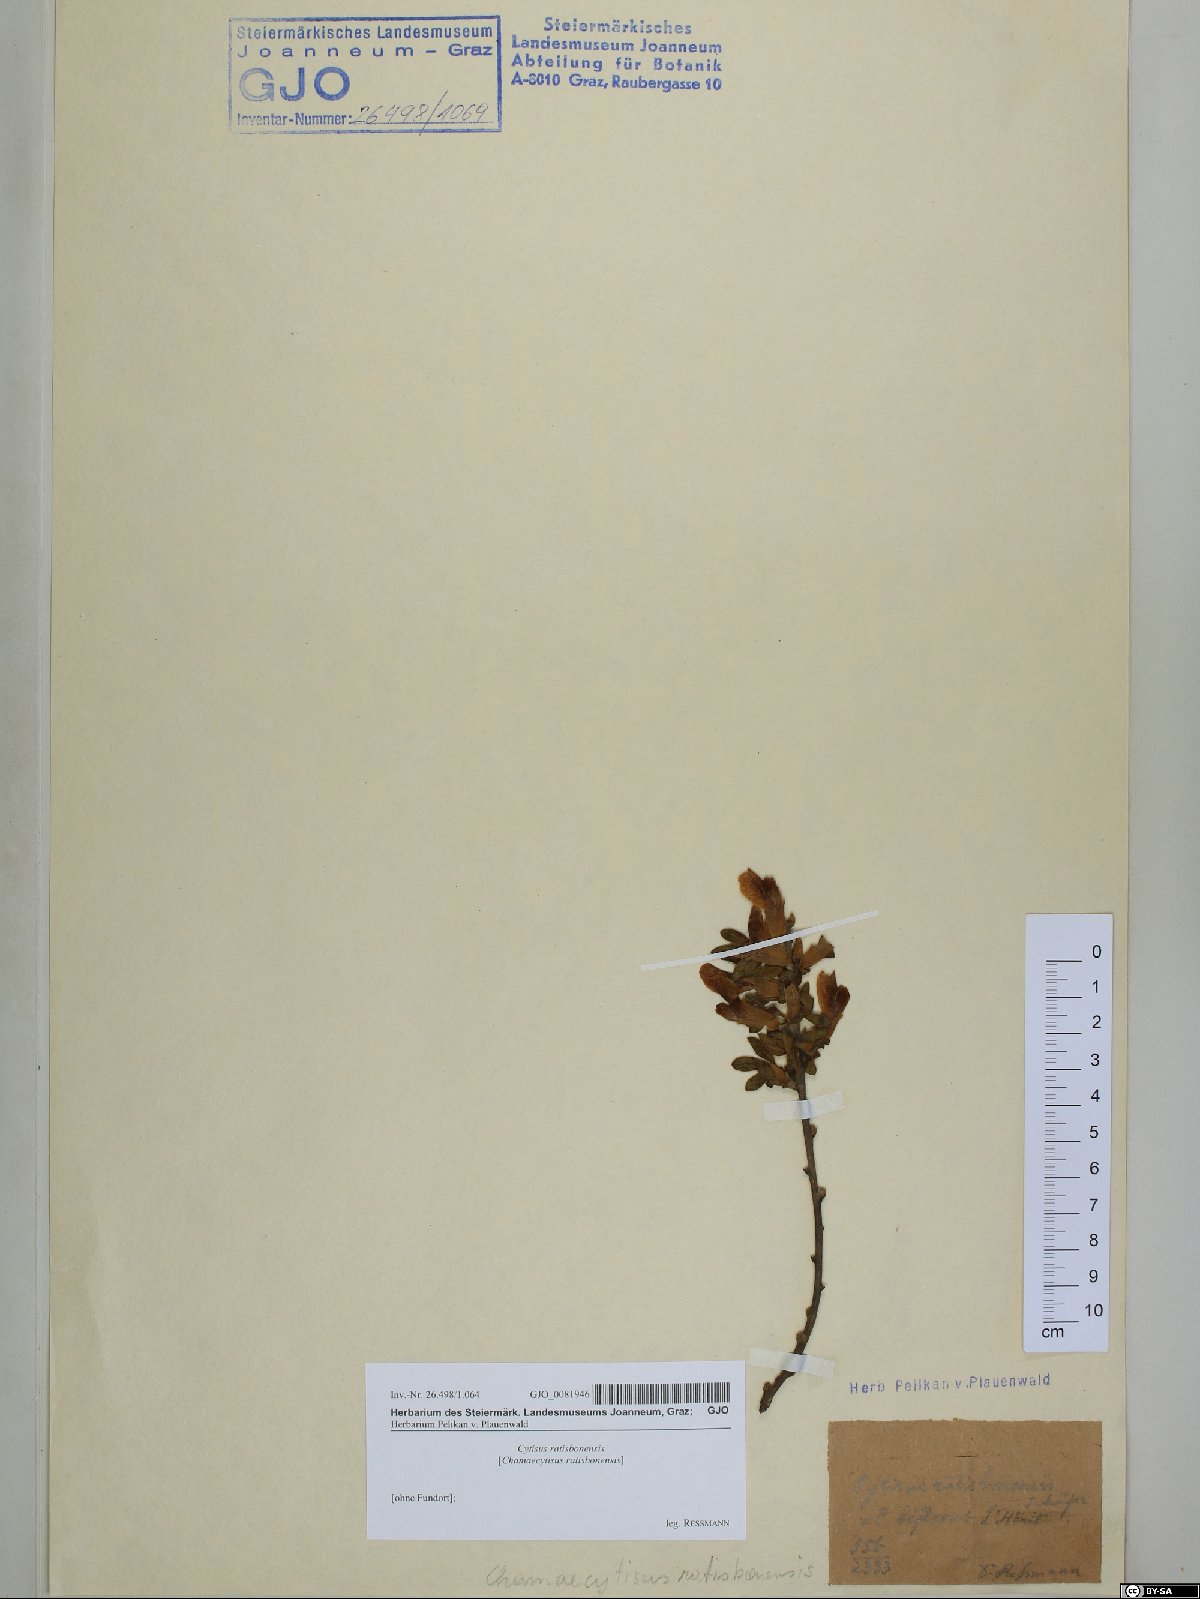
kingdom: Plantae
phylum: Tracheophyta
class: Magnoliopsida
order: Fabales
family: Fabaceae
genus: Chamaecytisus
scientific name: Chamaecytisus ratisbonensis
